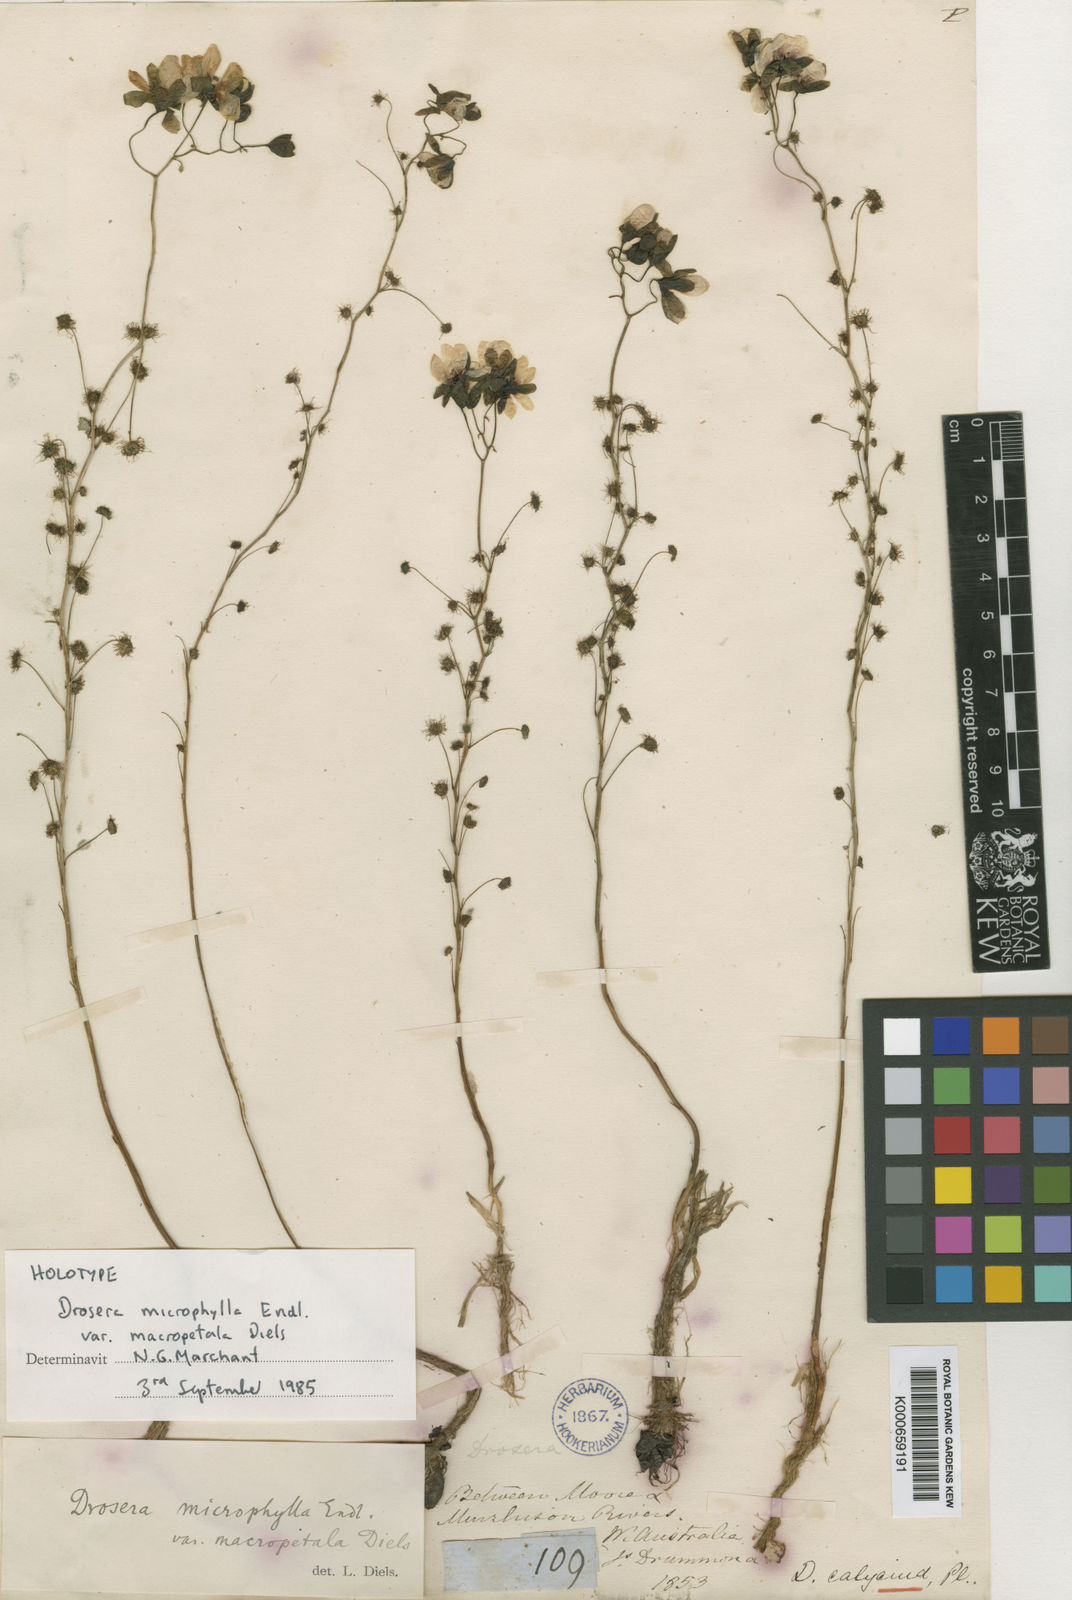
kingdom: Plantae
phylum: Tracheophyta
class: Magnoliopsida
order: Caryophyllales
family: Droseraceae
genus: Drosera
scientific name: Drosera microphylla
